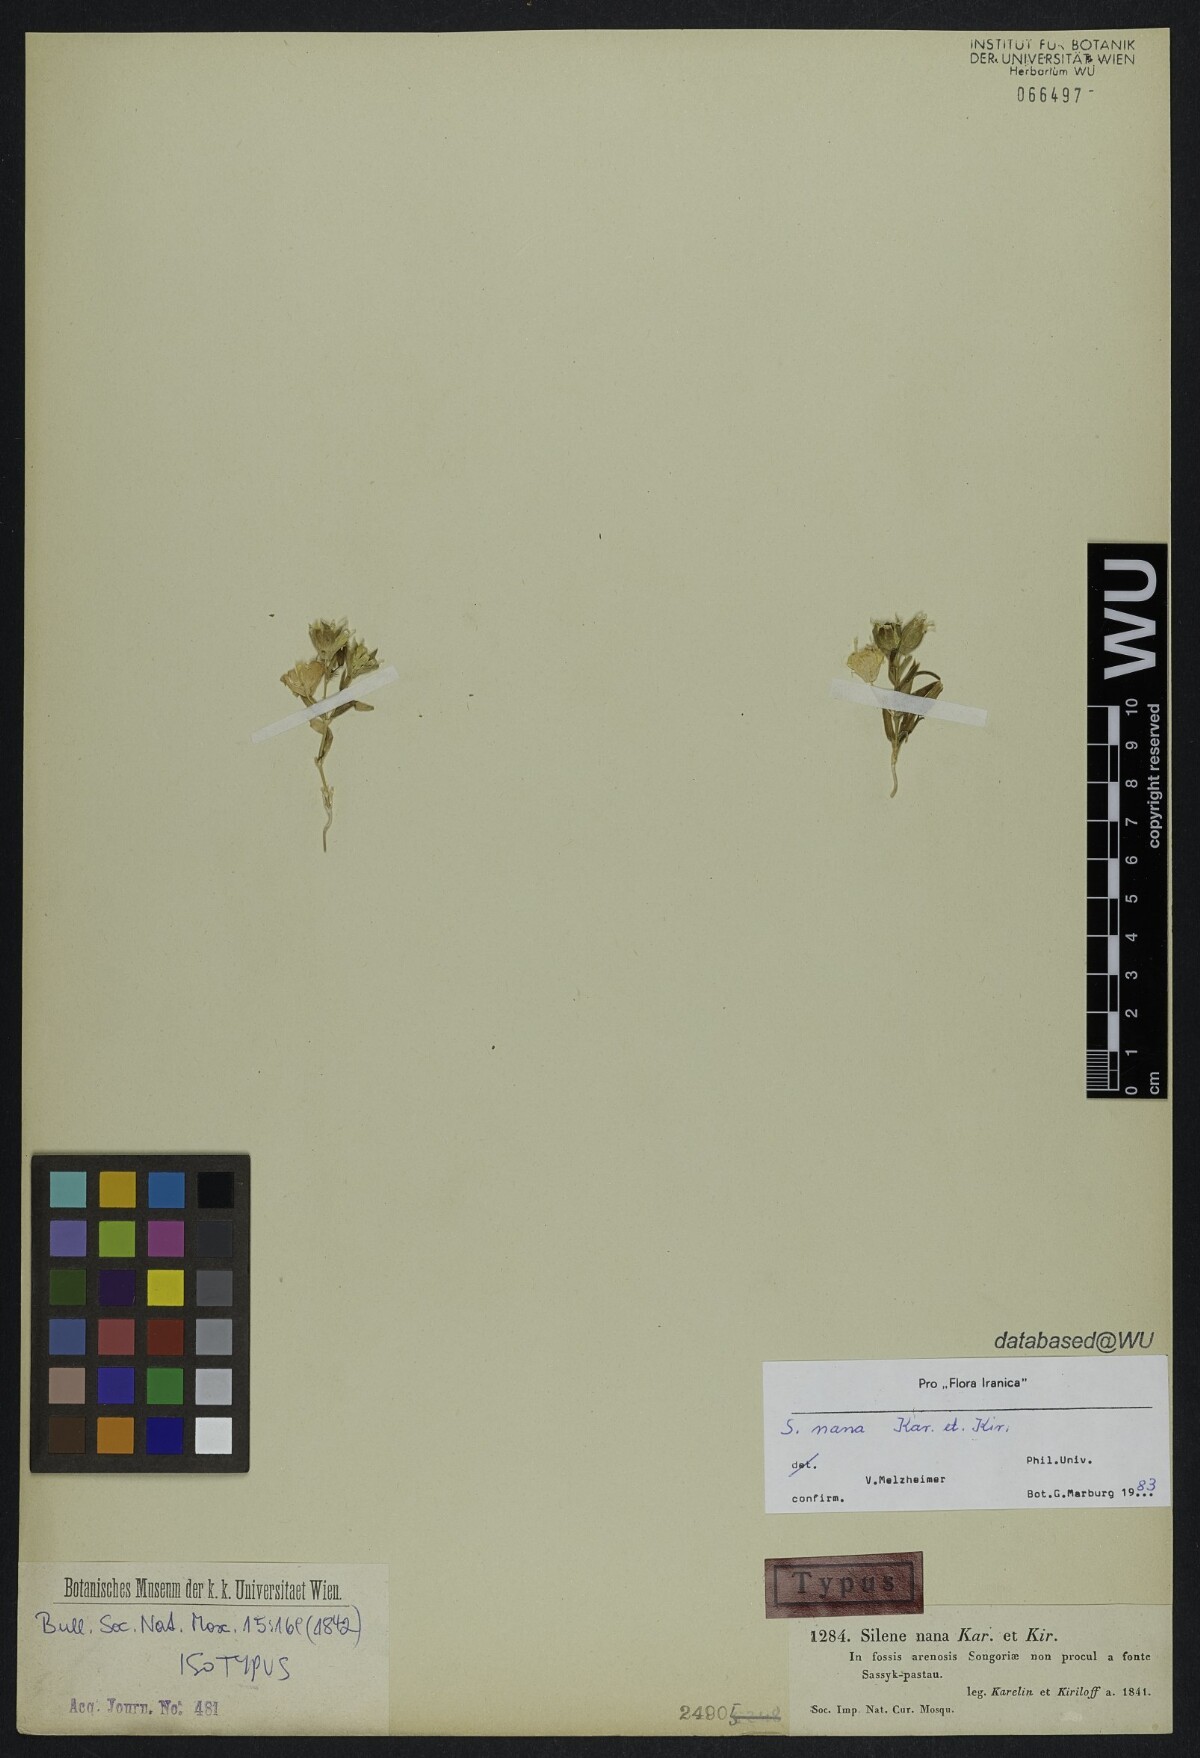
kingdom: Plantae
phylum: Tracheophyta
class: Magnoliopsida
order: Caryophyllales
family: Caryophyllaceae
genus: Silene
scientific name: Silene nana
